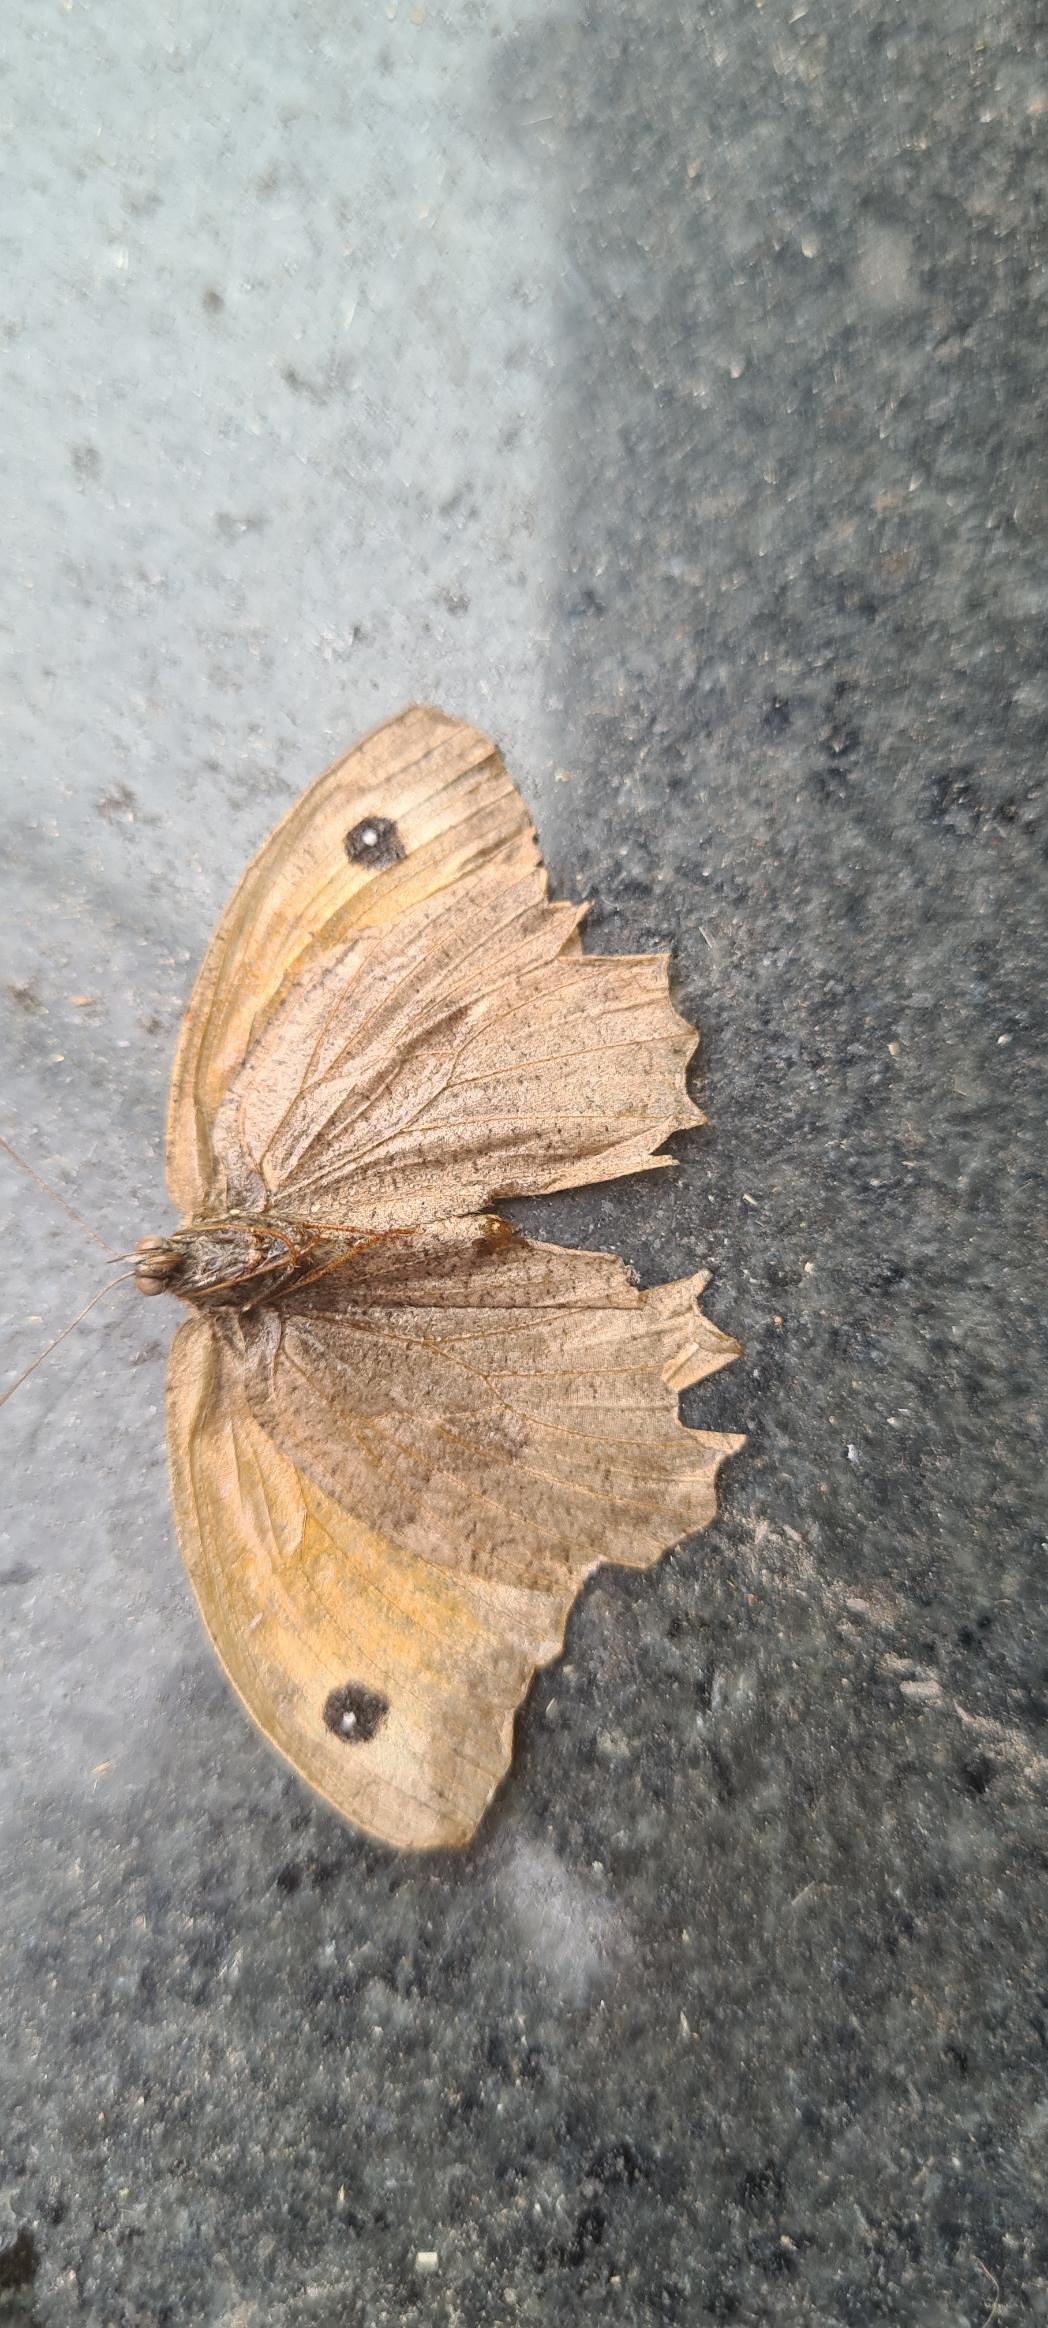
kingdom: Animalia
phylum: Arthropoda
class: Insecta
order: Lepidoptera
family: Nymphalidae
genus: Maniola
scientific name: Maniola jurtina
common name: Græsrandøje
